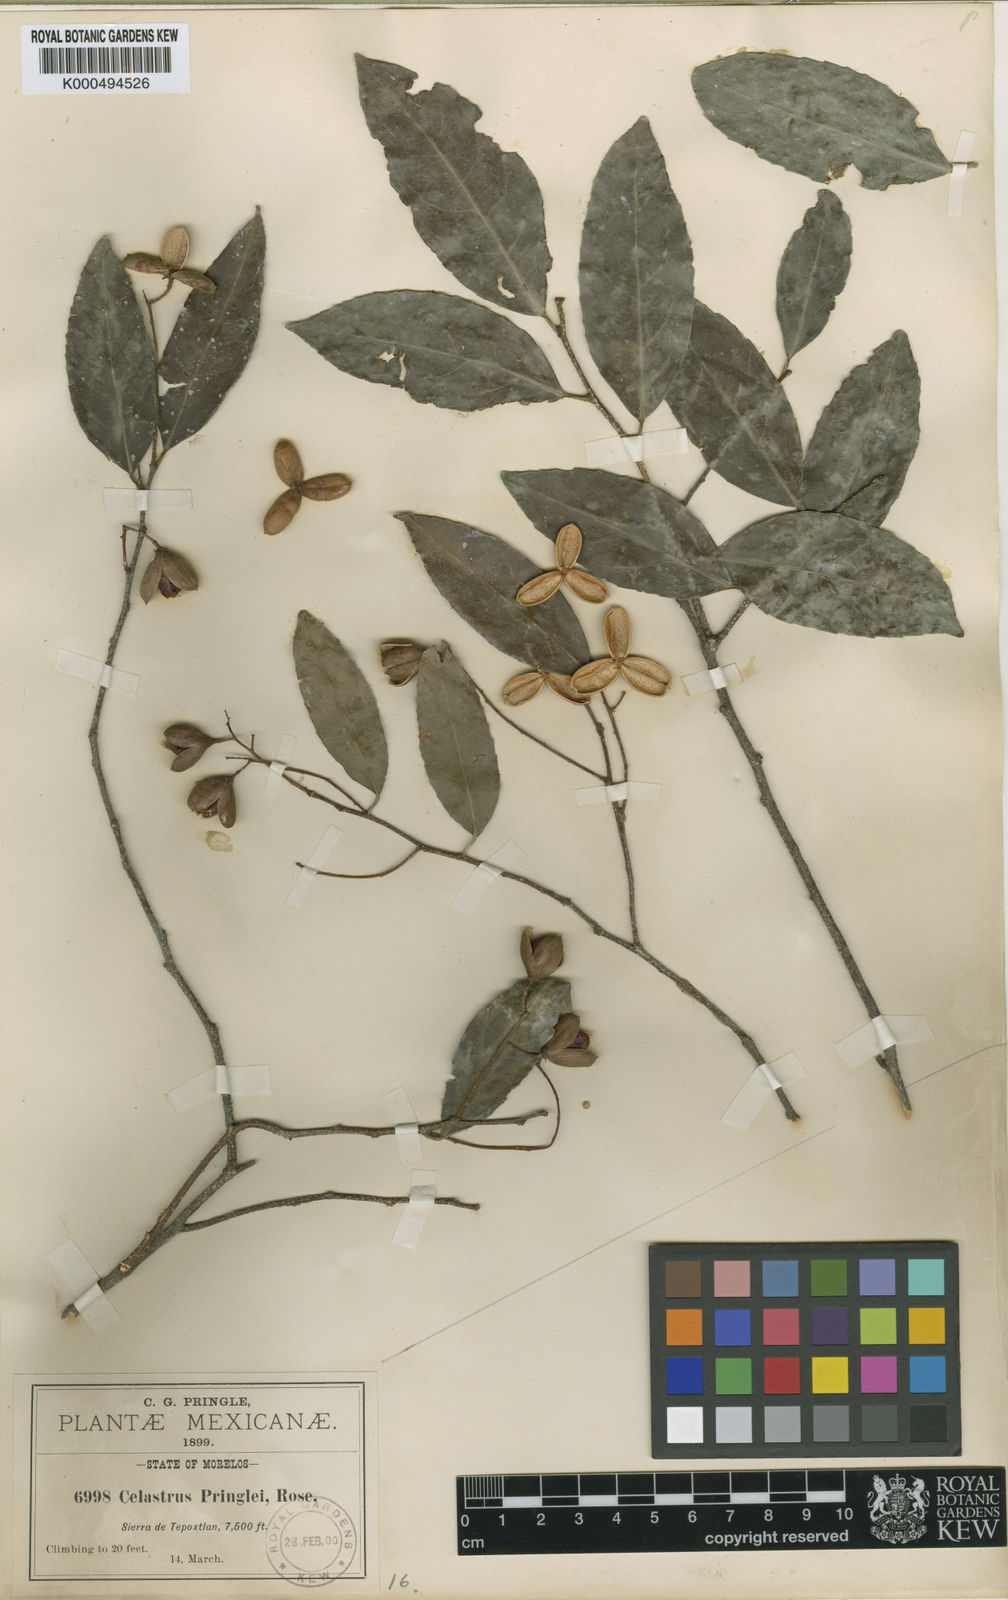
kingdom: Plantae
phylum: Tracheophyta
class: Magnoliopsida
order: Celastrales
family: Celastraceae
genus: Celastrus
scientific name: Celastrus pringlei
